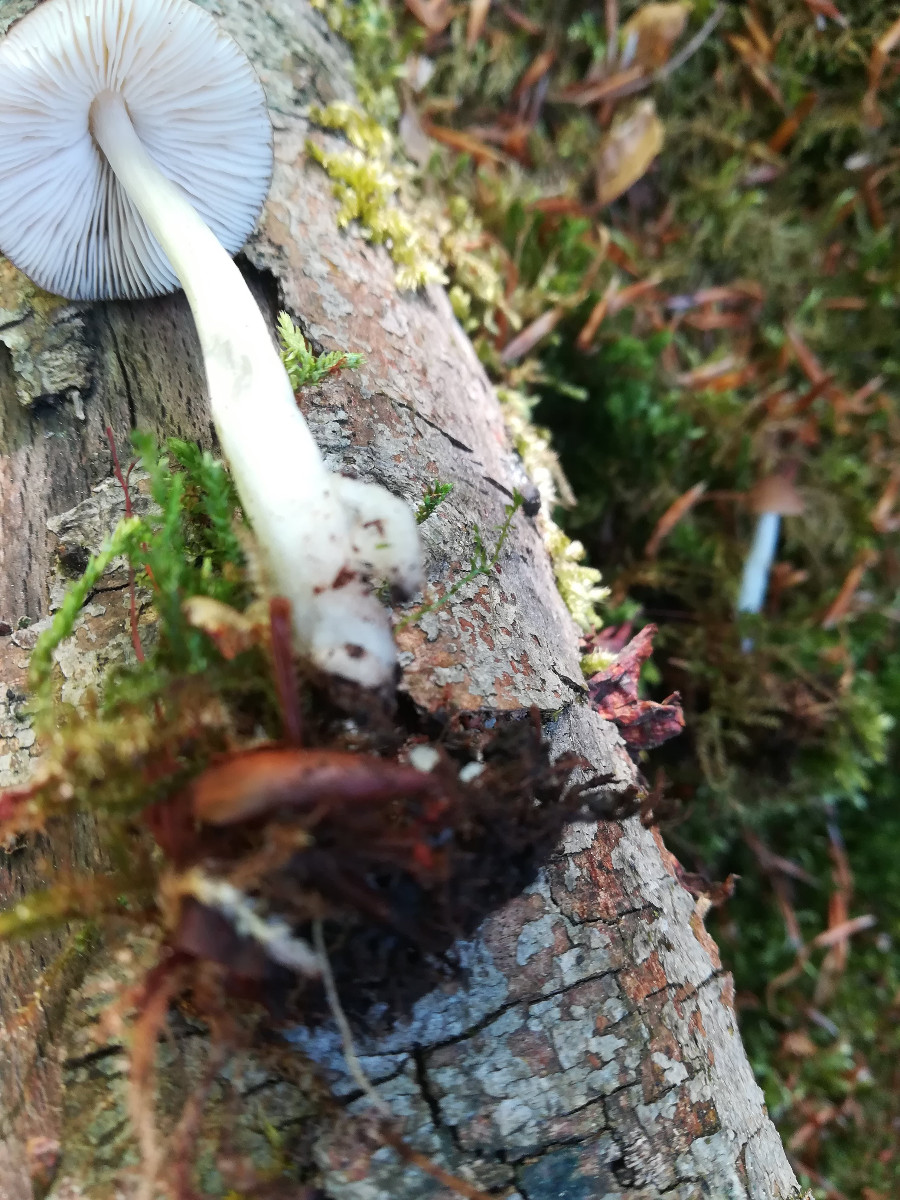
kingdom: Fungi
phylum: Basidiomycota
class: Agaricomycetes
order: Agaricales
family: Pluteaceae
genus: Pluteus
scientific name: Pluteus phlebophorus
